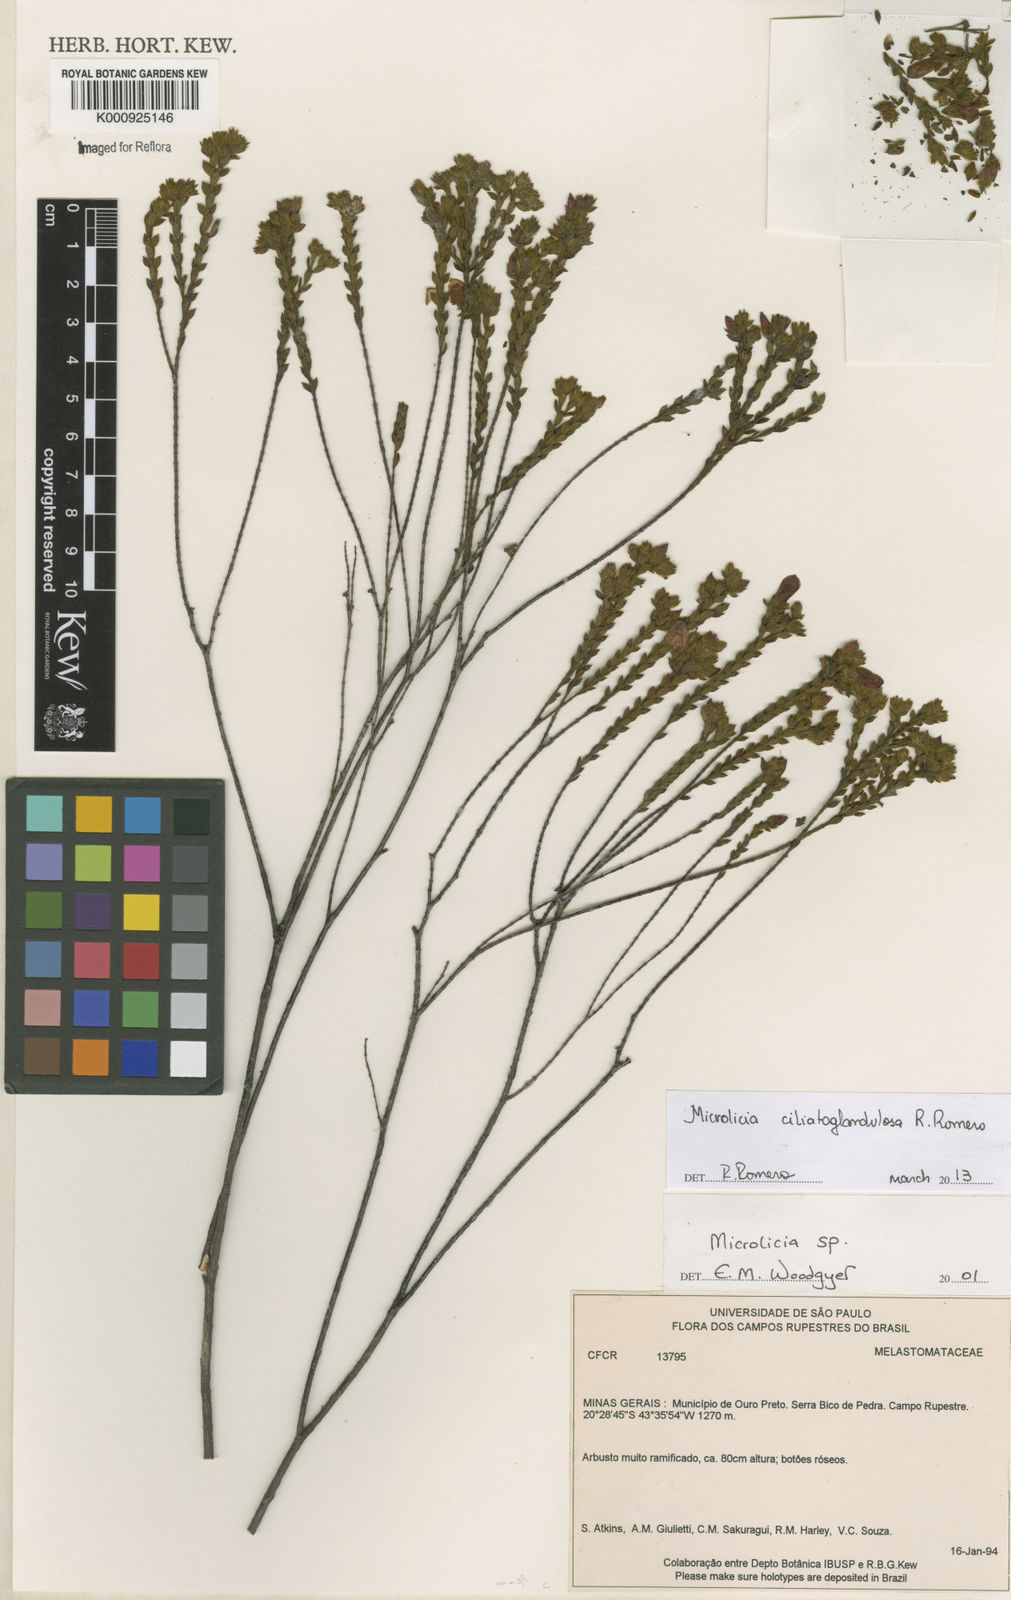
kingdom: Plantae
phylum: Tracheophyta
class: Magnoliopsida
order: Myrtales
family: Melastomataceae
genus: Microlicia
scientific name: Microlicia ciliatoglandulosa
